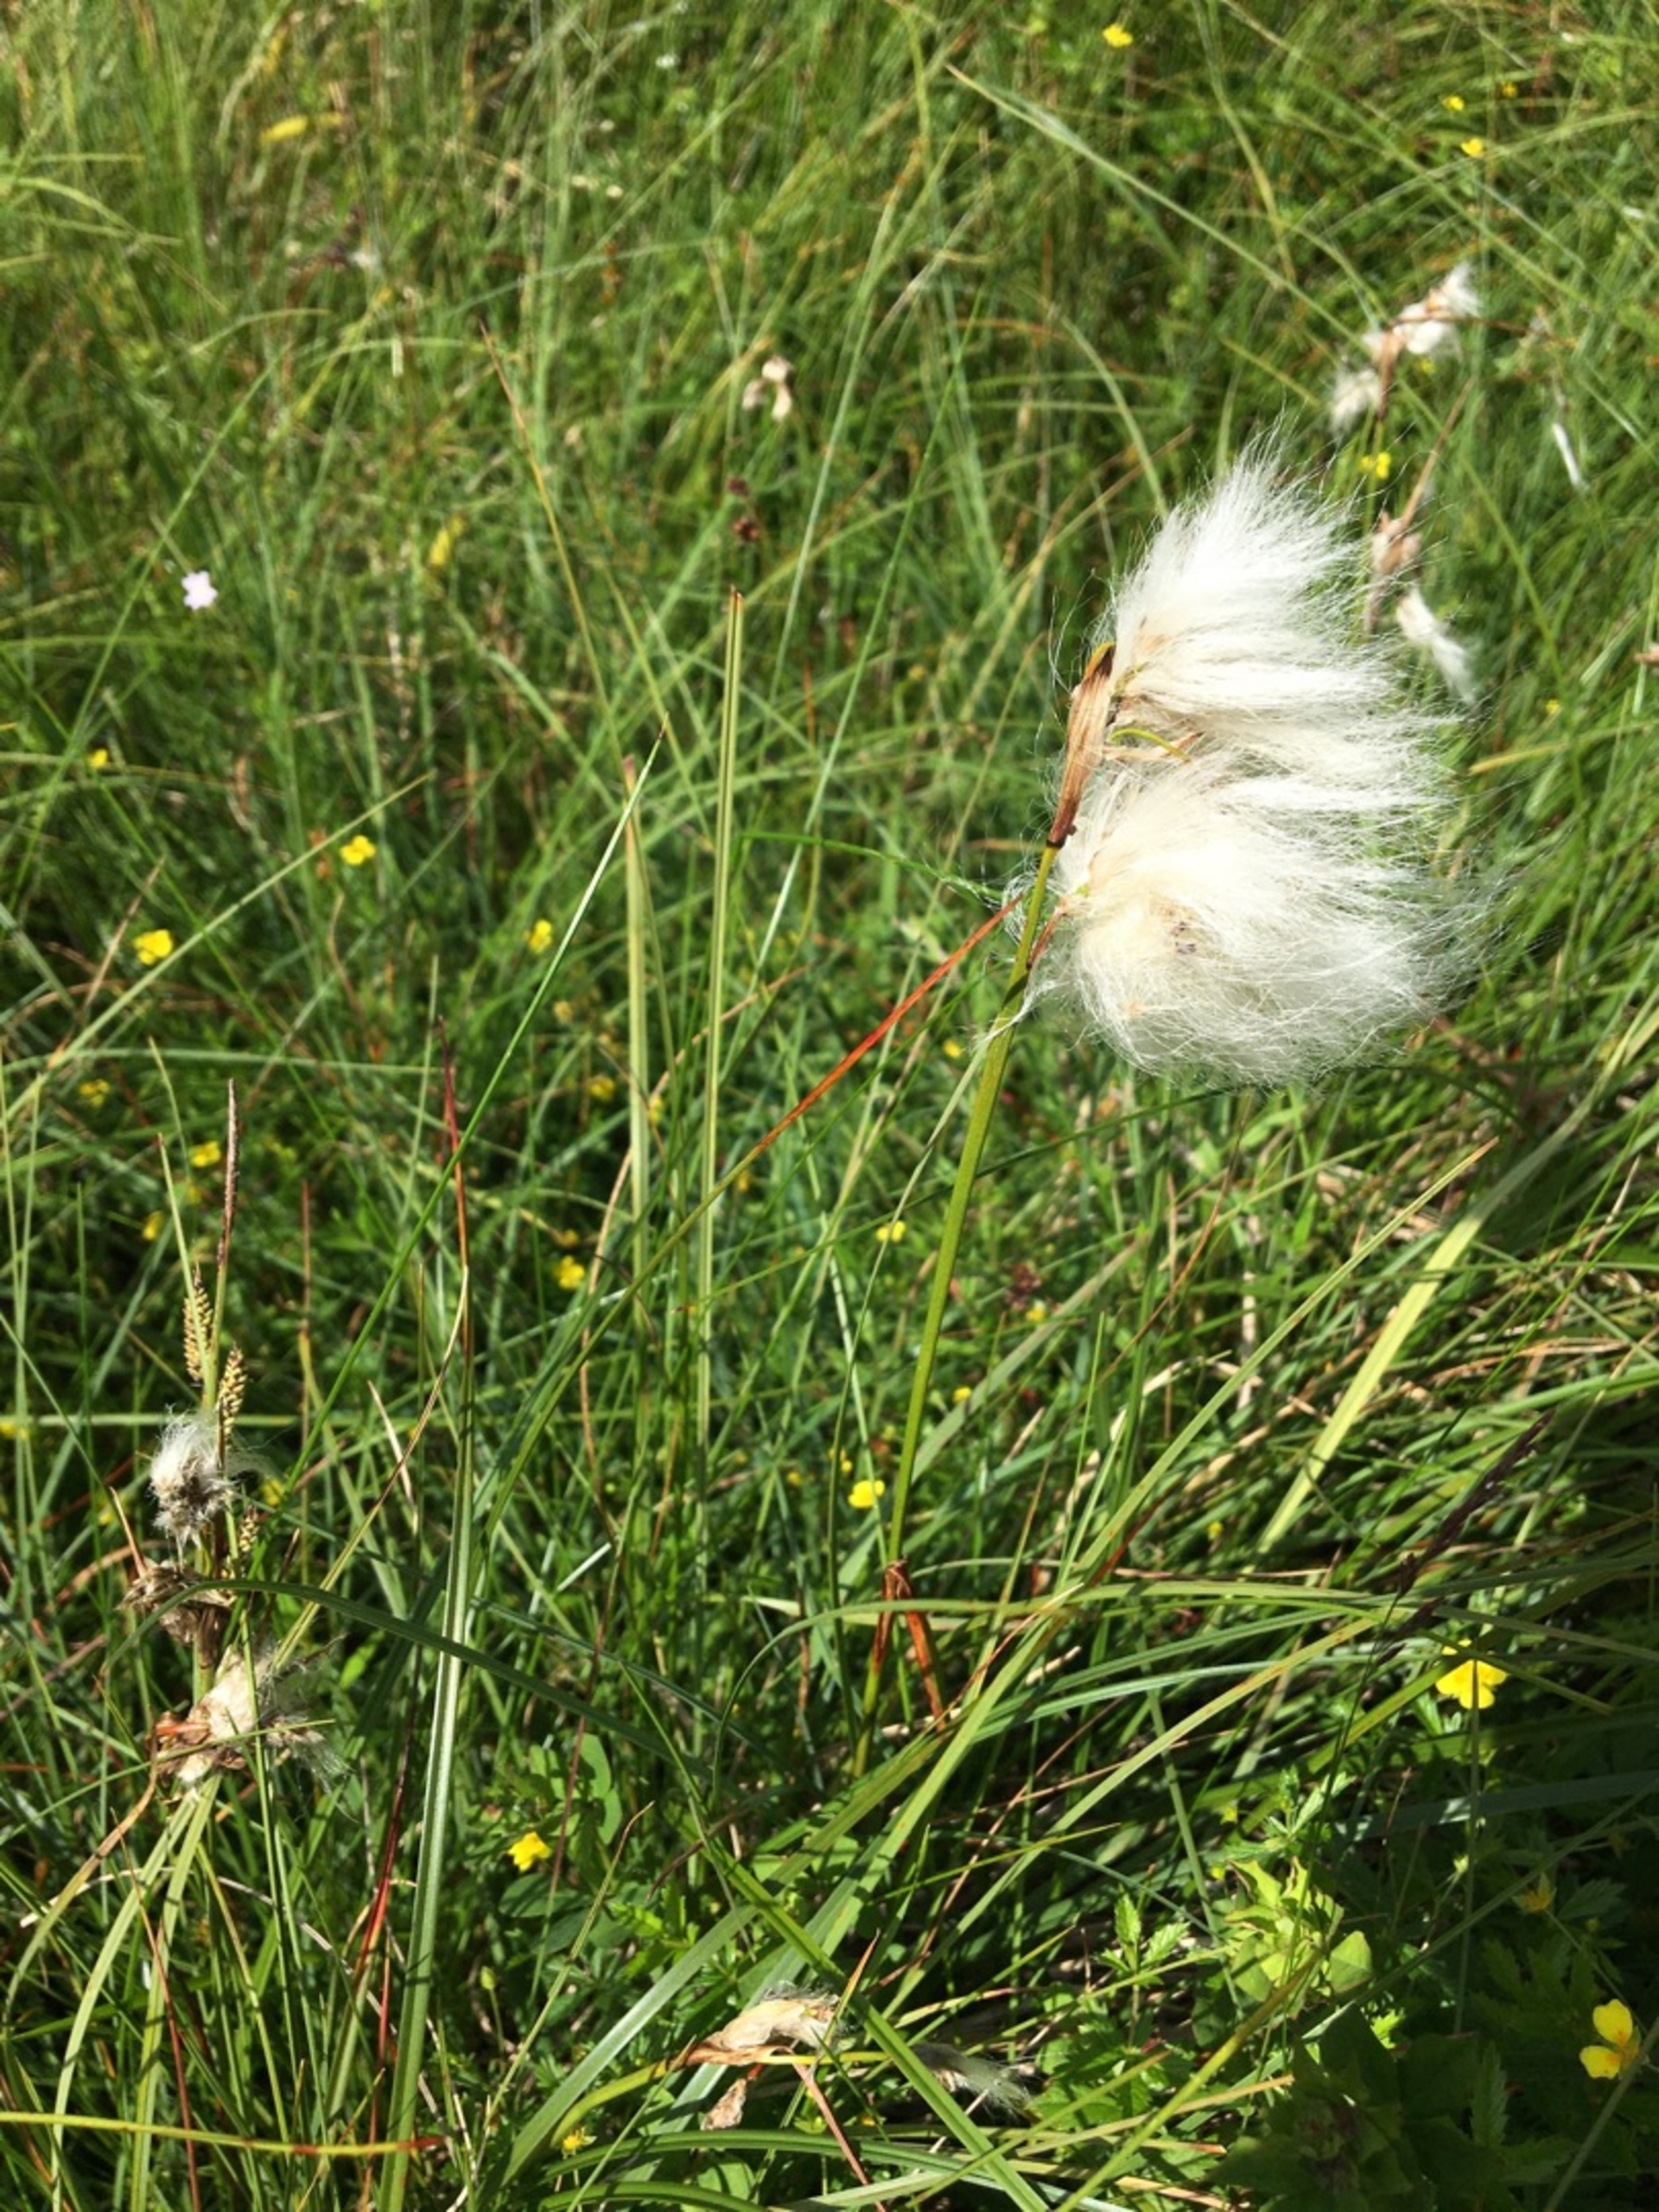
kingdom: Plantae
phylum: Tracheophyta
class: Liliopsida
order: Poales
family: Cyperaceae
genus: Eriophorum
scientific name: Eriophorum angustifolium
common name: Smalbladet kæruld
